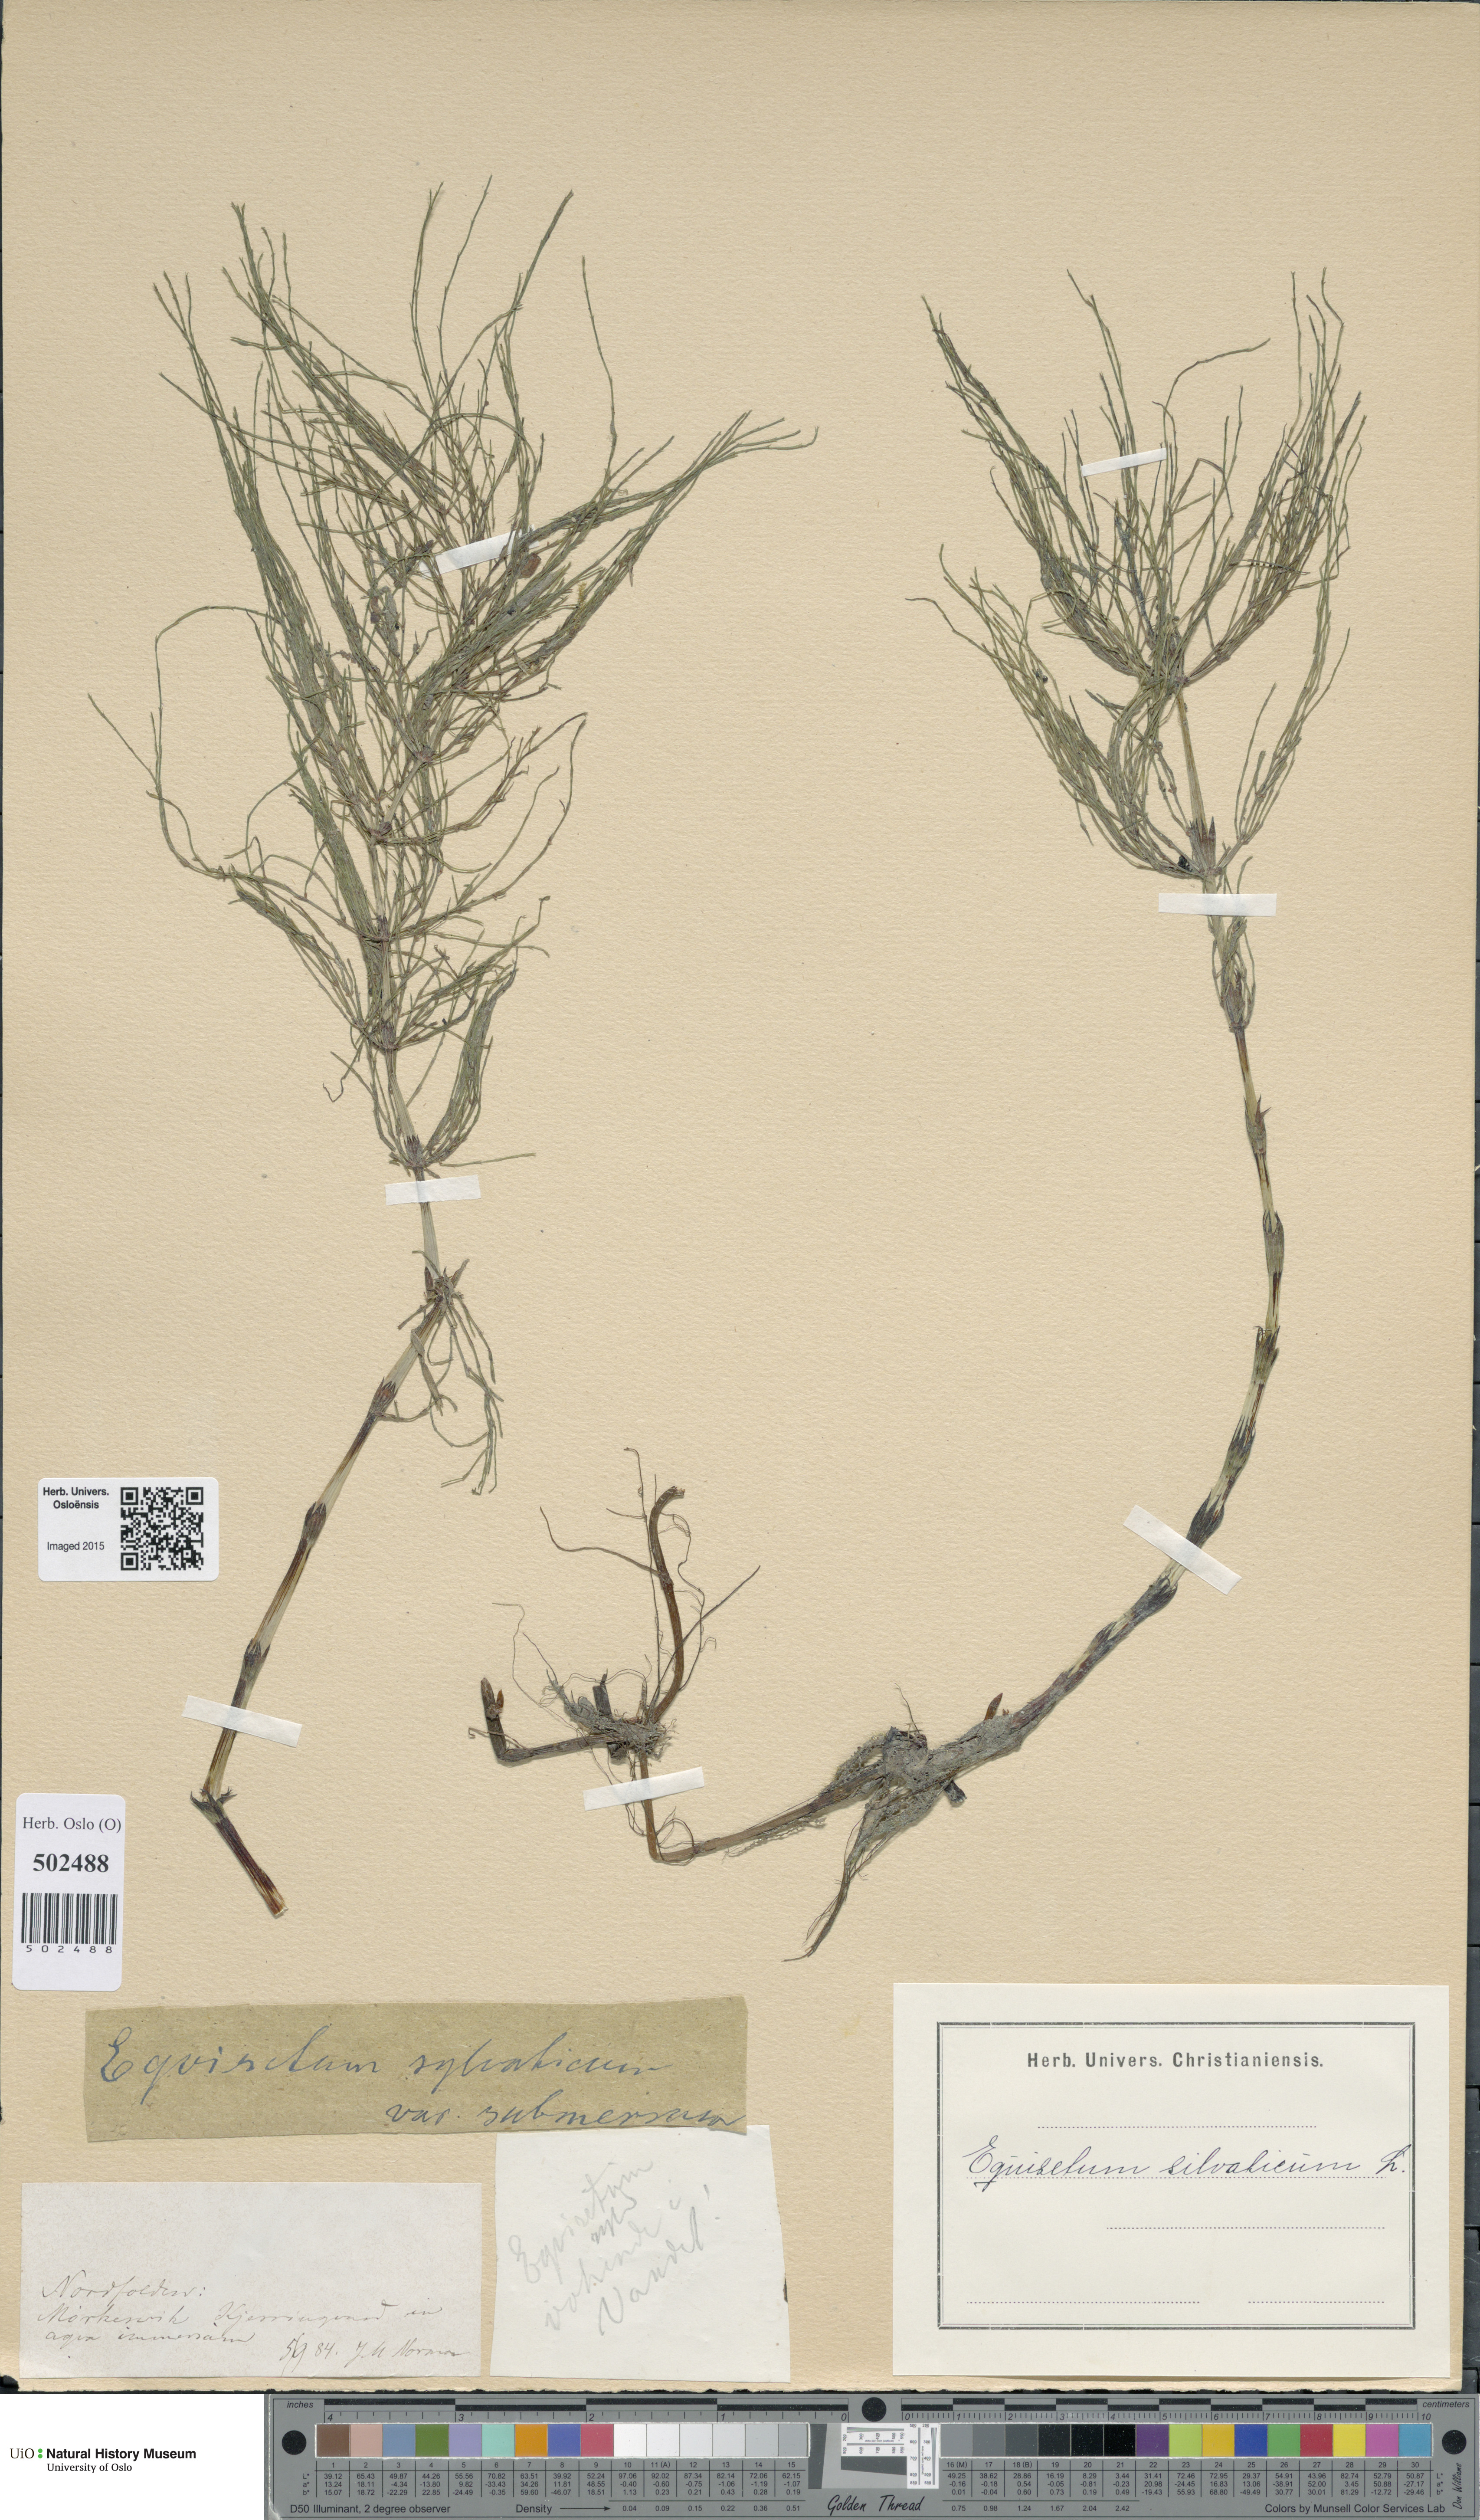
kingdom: Plantae
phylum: Tracheophyta
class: Polypodiopsida
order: Equisetales
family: Equisetaceae
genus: Equisetum
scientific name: Equisetum sylvaticum
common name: Wood horsetail
